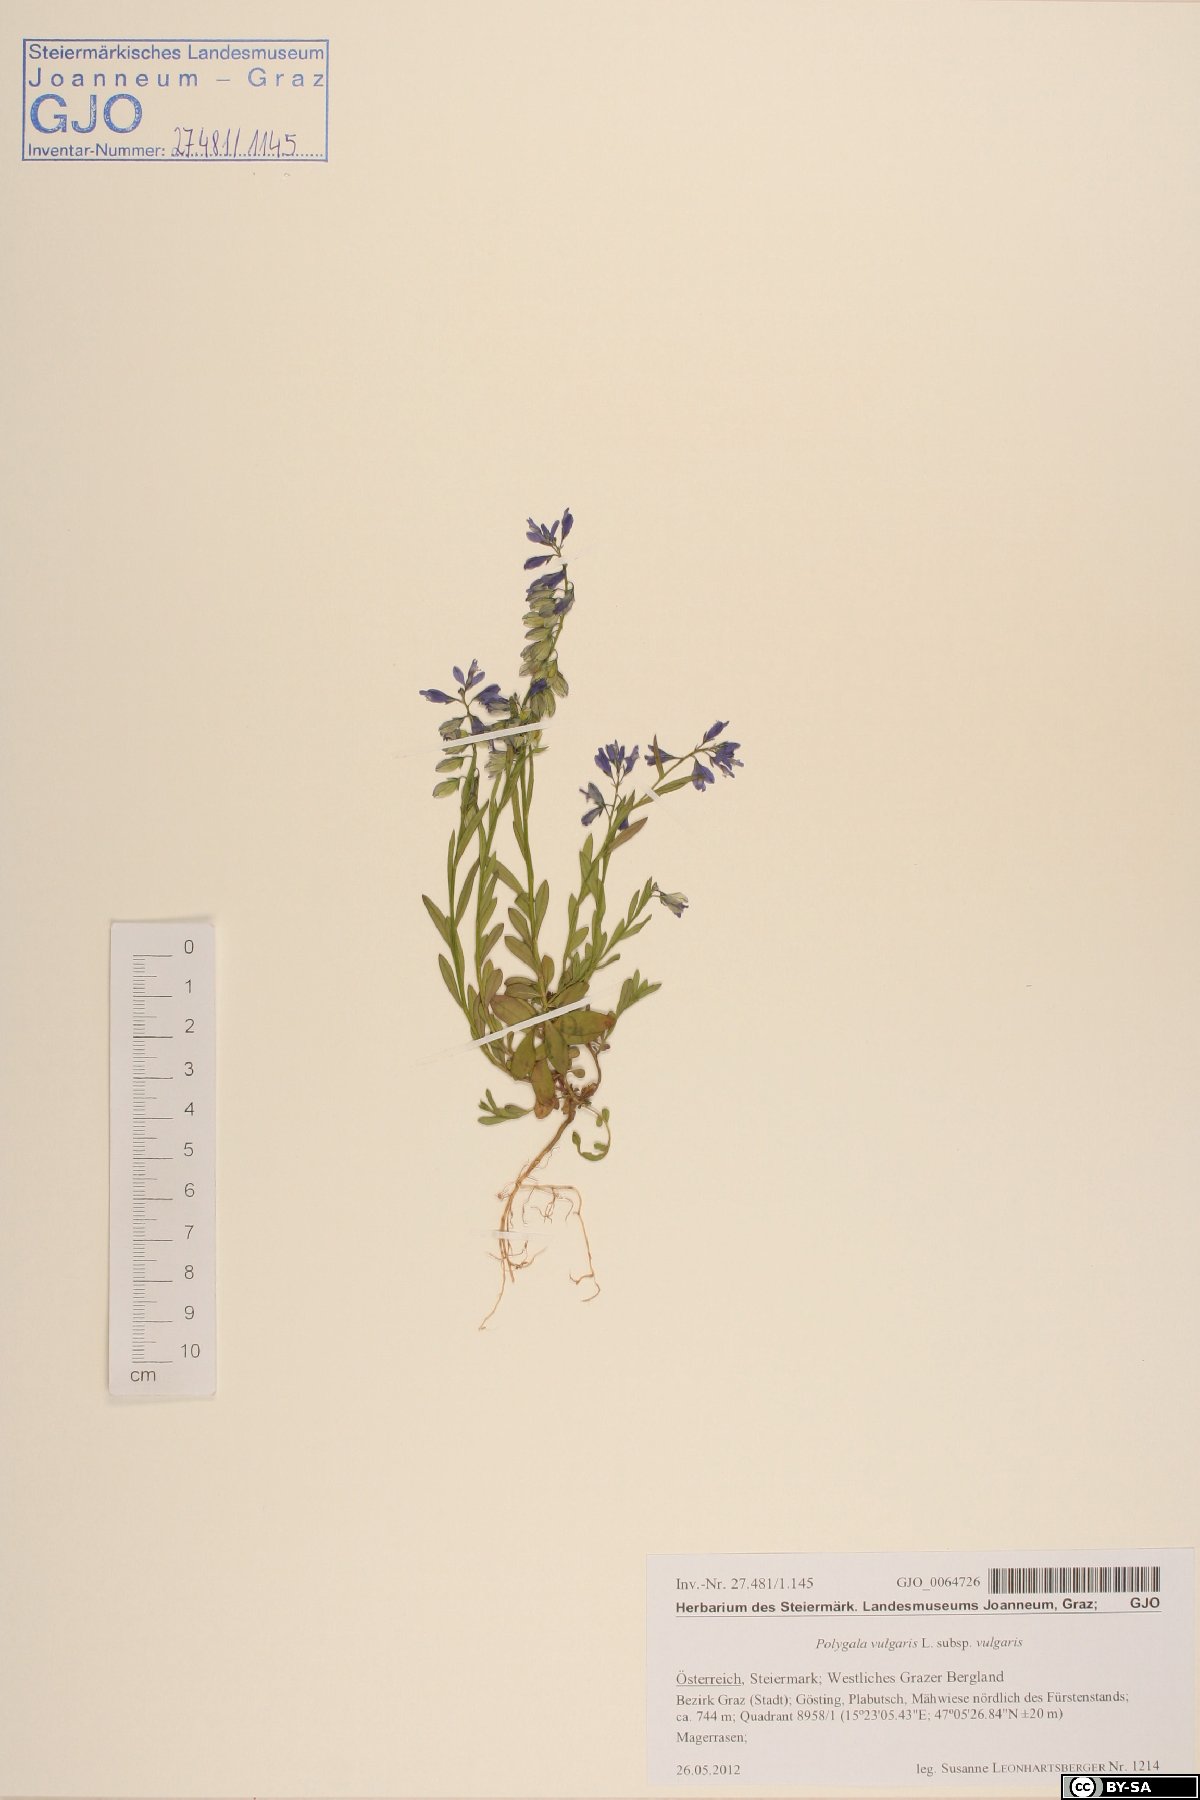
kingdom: Plantae
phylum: Tracheophyta
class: Magnoliopsida
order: Fabales
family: Polygalaceae
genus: Polygala
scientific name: Polygala vulgaris
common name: Common milkwort
